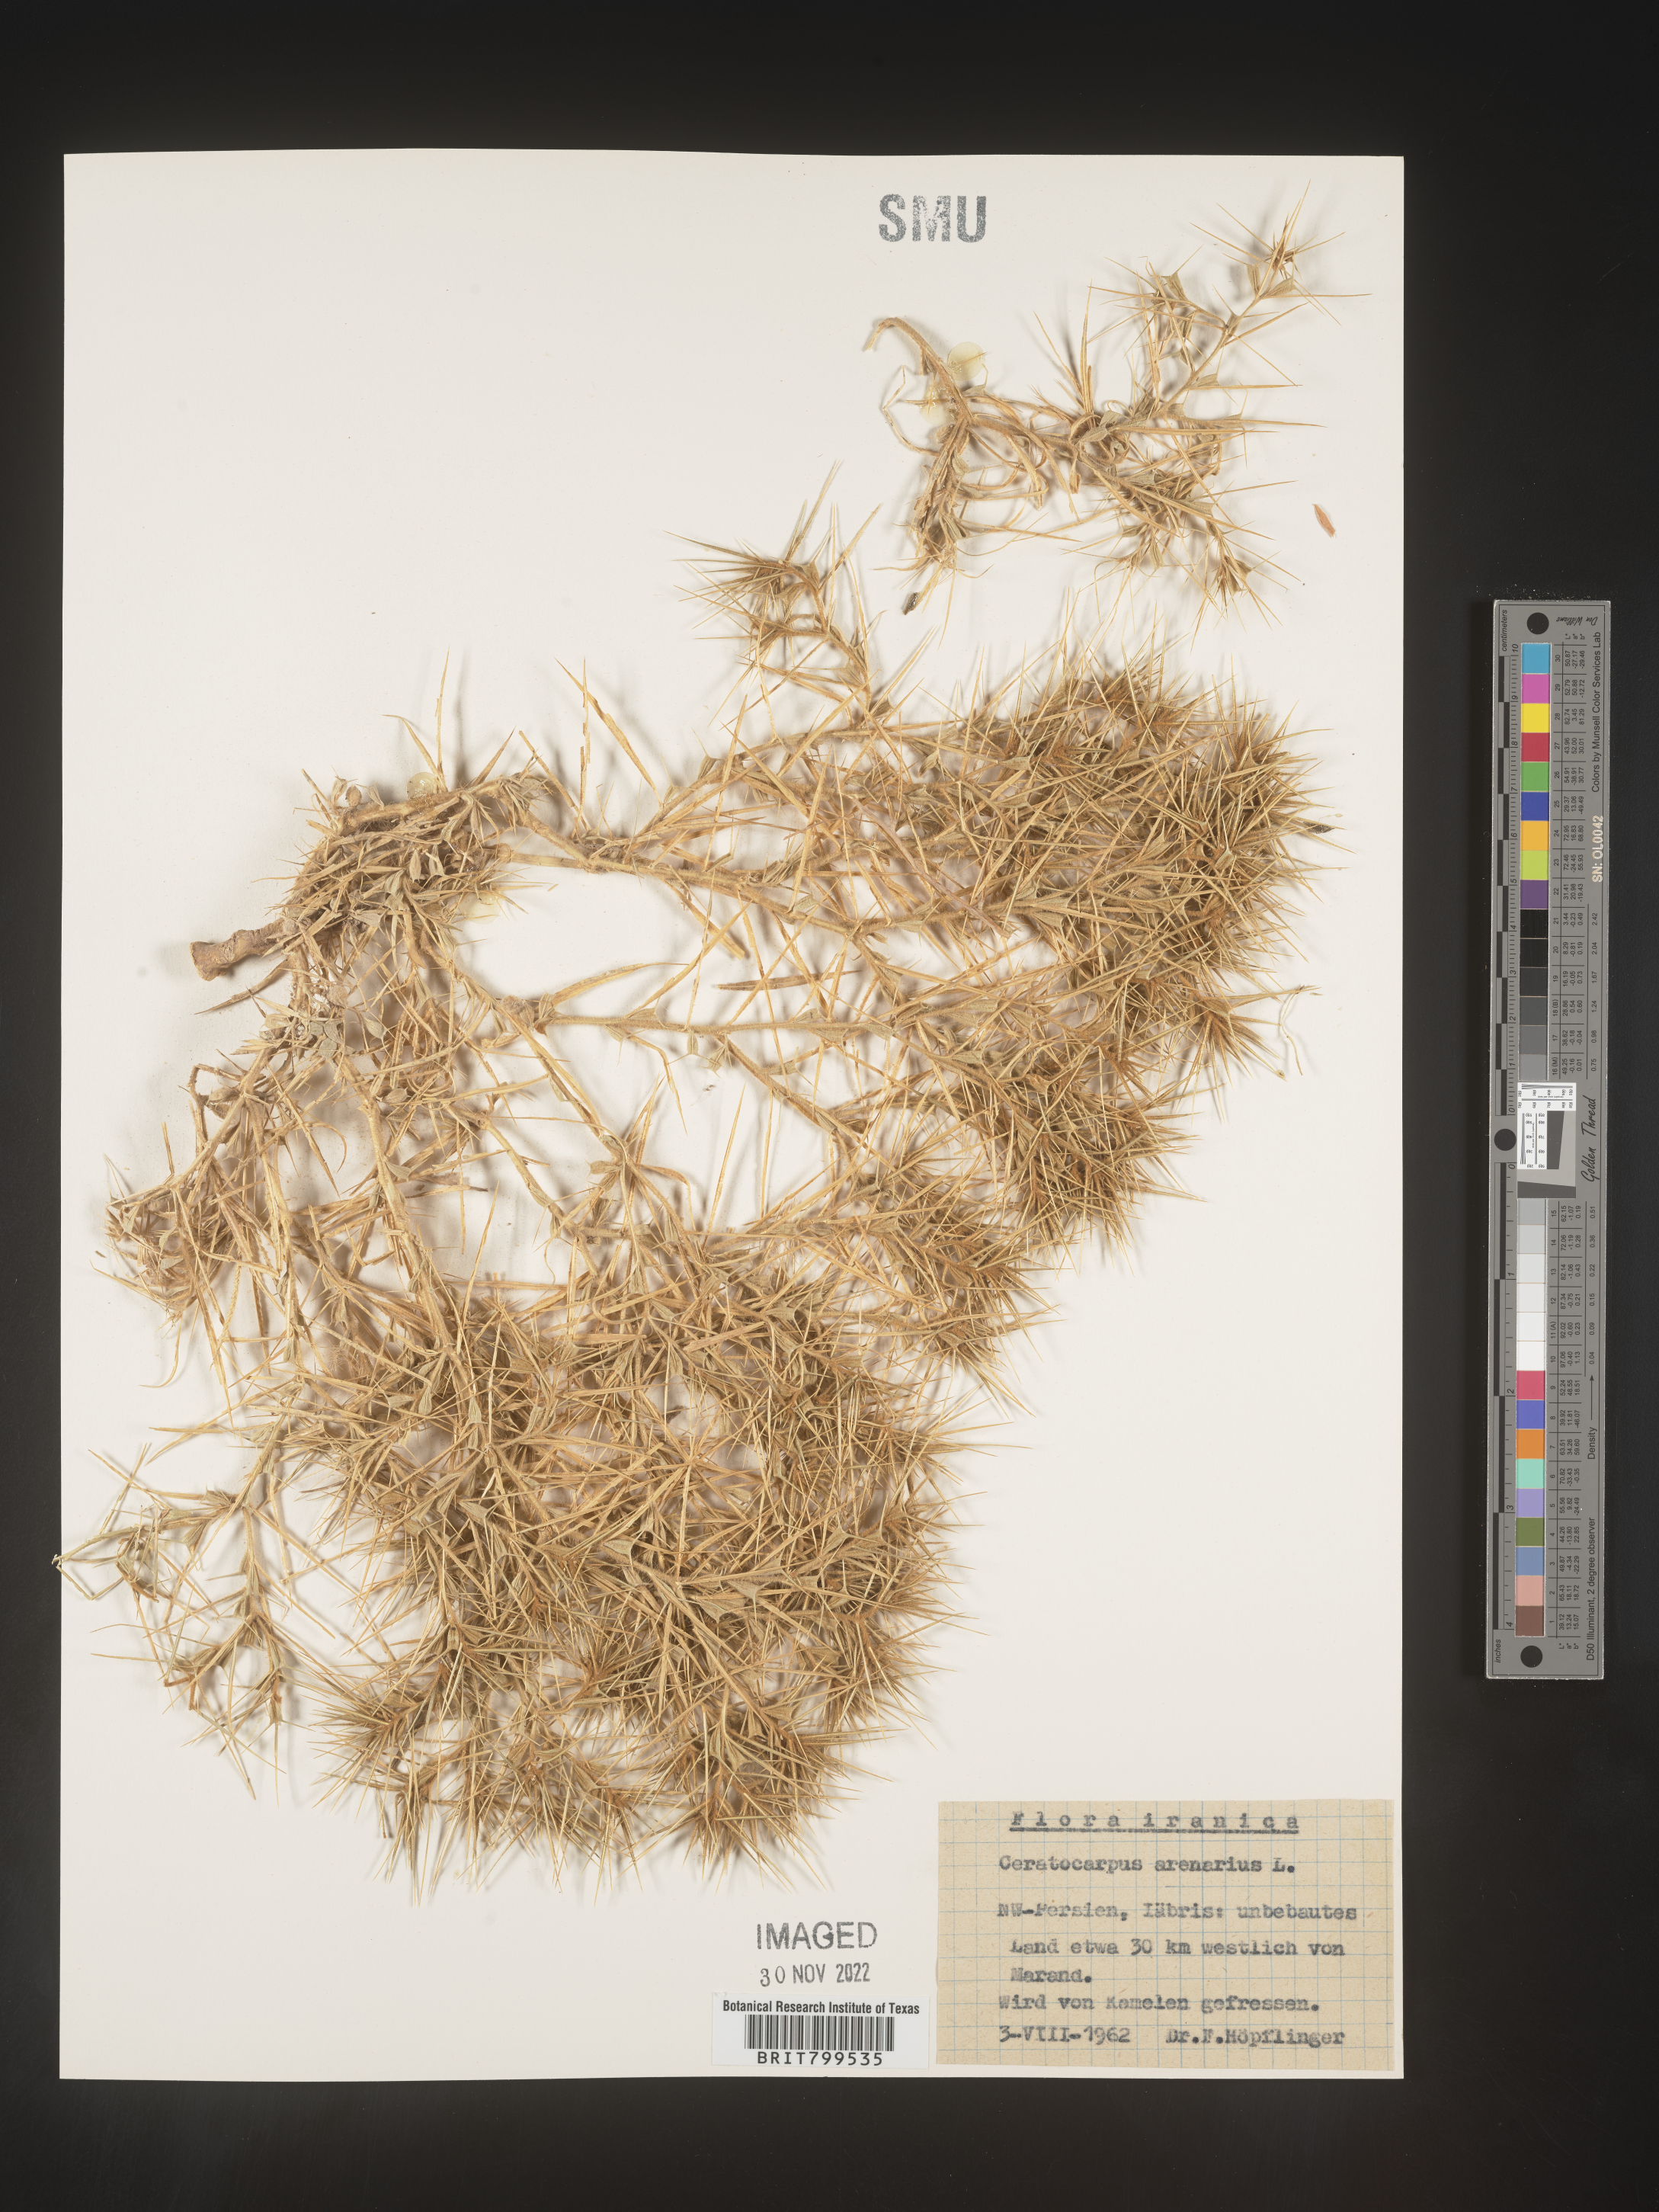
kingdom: Plantae
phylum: Tracheophyta
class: Magnoliopsida
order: Caryophyllales
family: Amaranthaceae
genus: Krascheninnikovia
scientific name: Krascheninnikovia
